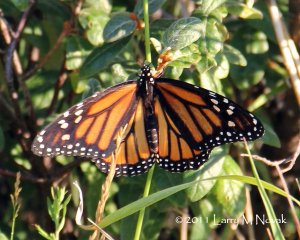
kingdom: Animalia
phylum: Arthropoda
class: Insecta
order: Lepidoptera
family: Nymphalidae
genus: Danaus
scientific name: Danaus plexippus
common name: Monarch
